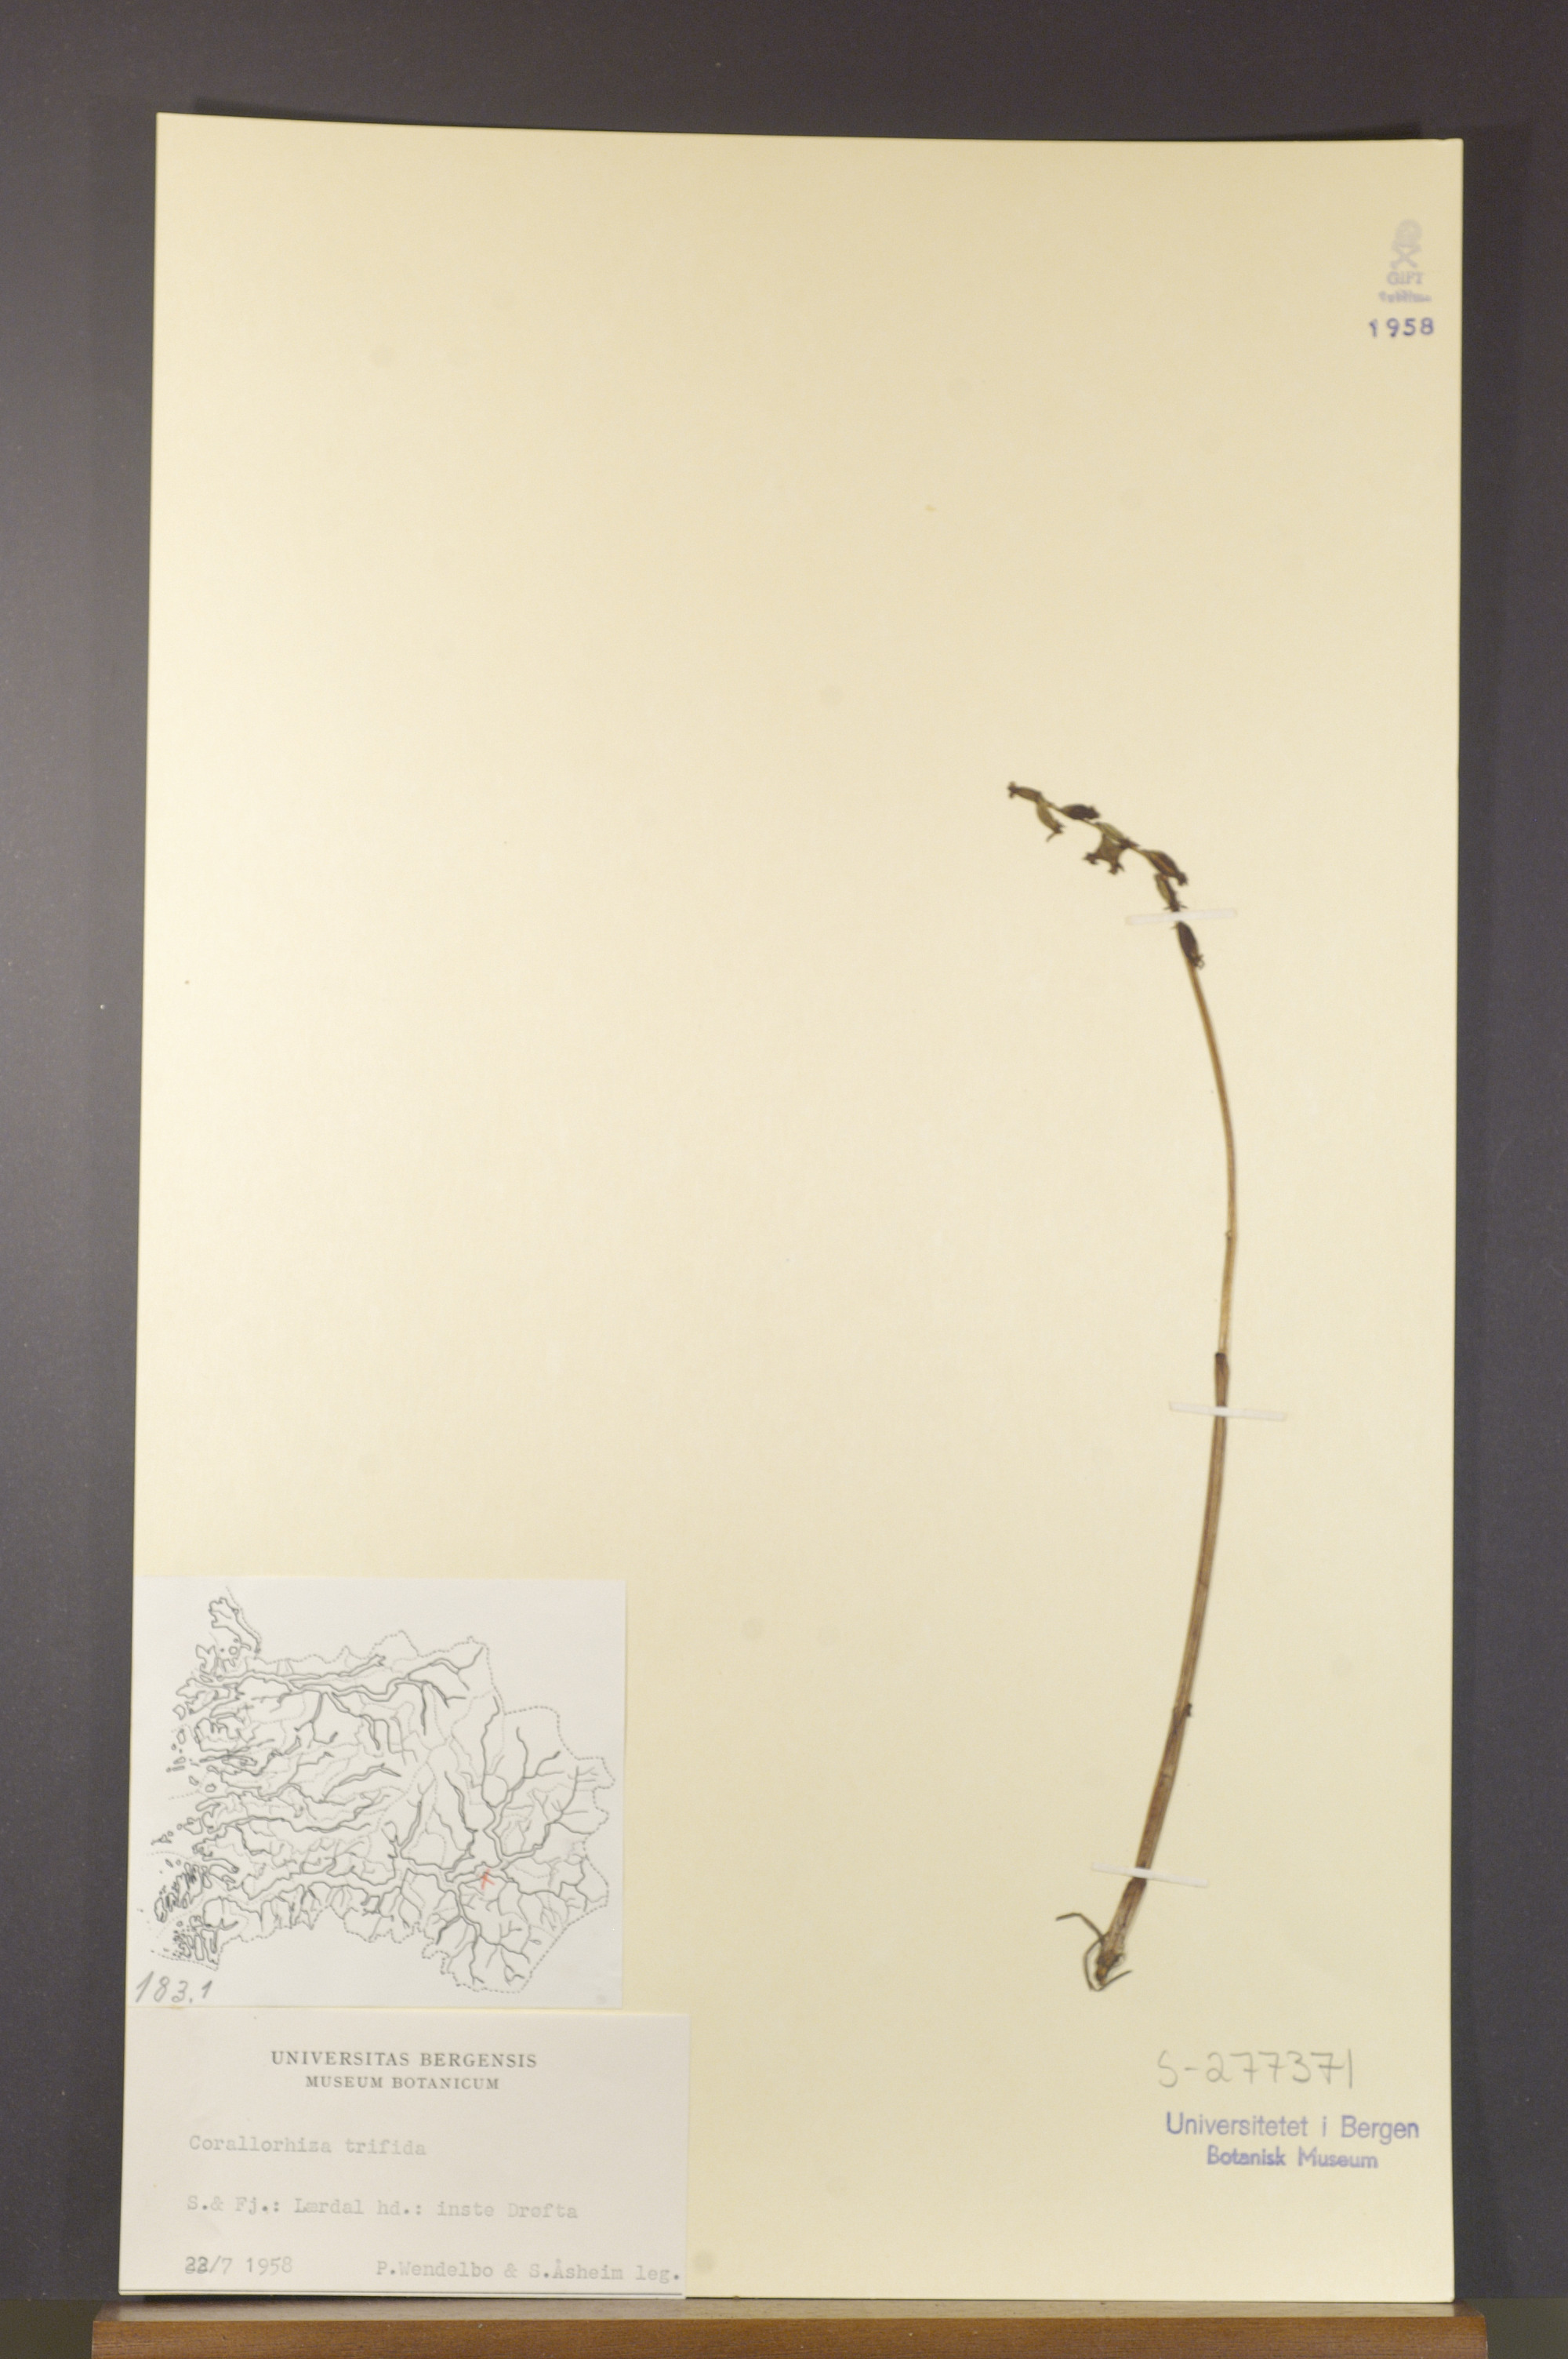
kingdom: Plantae
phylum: Tracheophyta
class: Liliopsida
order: Asparagales
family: Orchidaceae
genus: Corallorhiza
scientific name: Corallorhiza trifida
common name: Yellow coralroot
